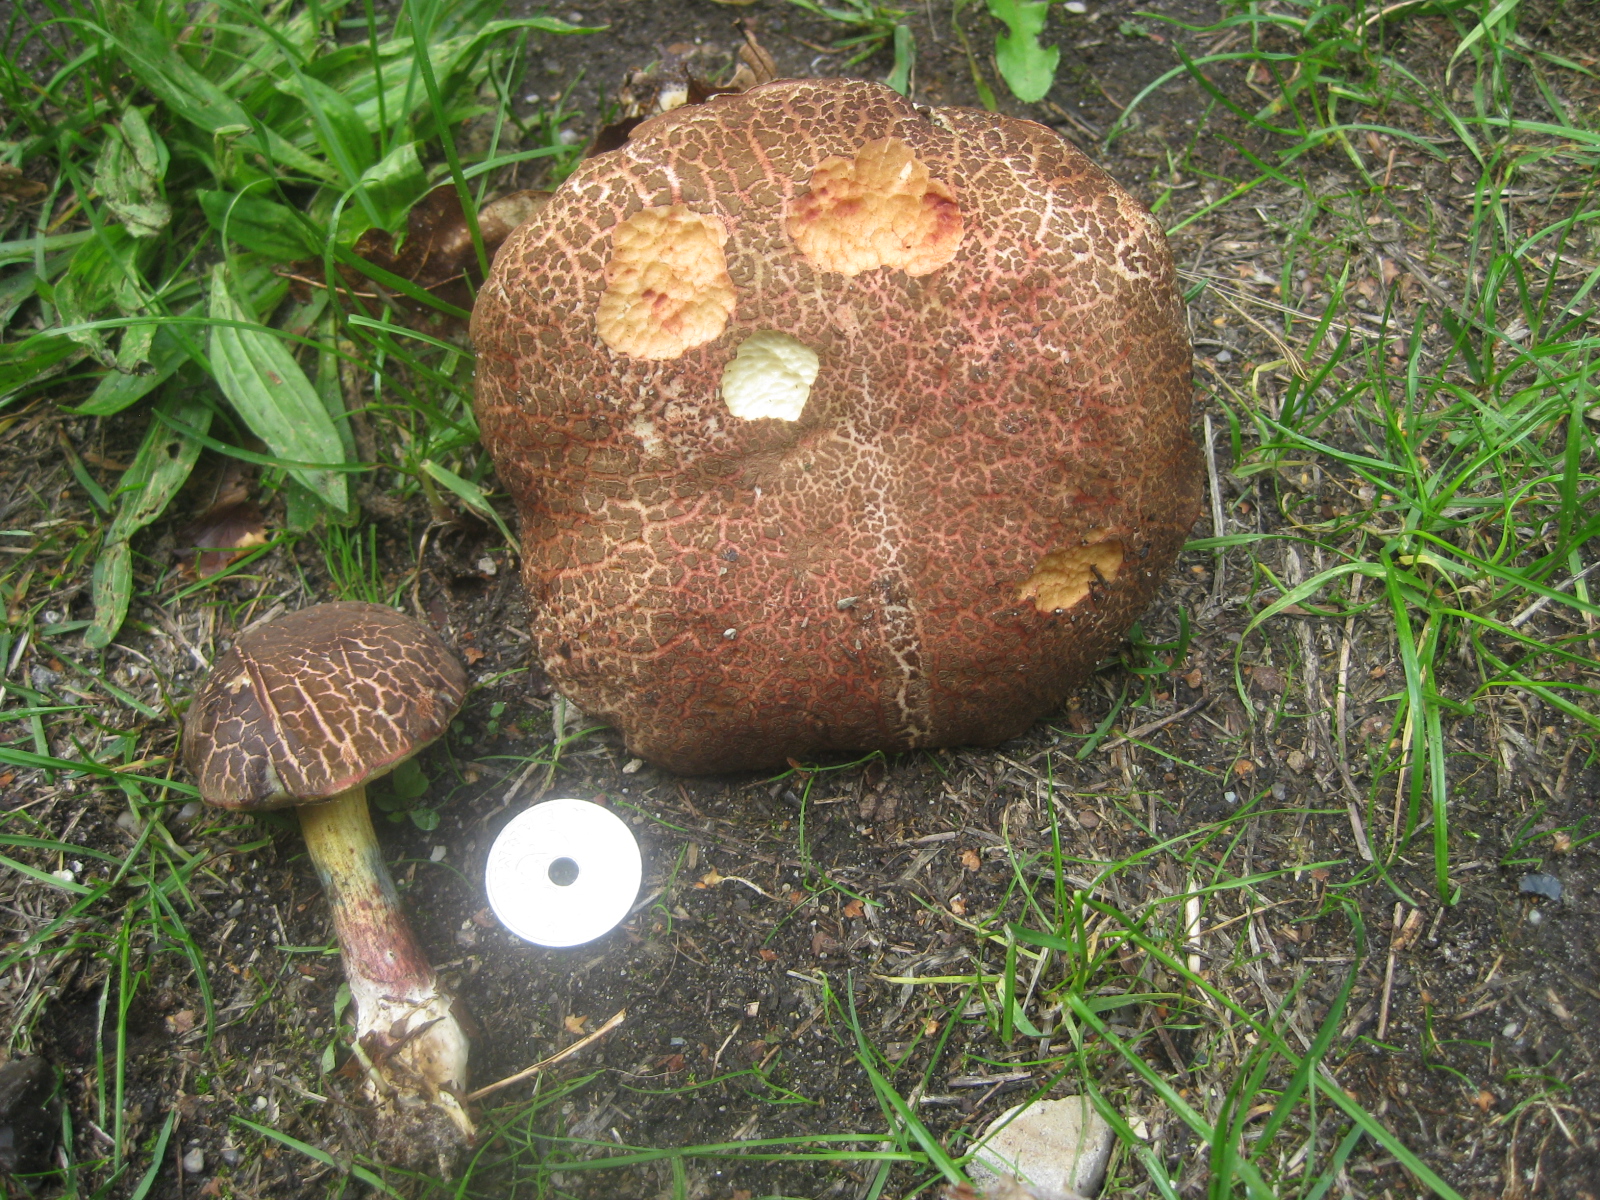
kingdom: Fungi
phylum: Basidiomycota
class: Agaricomycetes
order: Boletales
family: Boletaceae
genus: Xerocomellus
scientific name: Xerocomellus cisalpinus
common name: finsprukken rørhat
